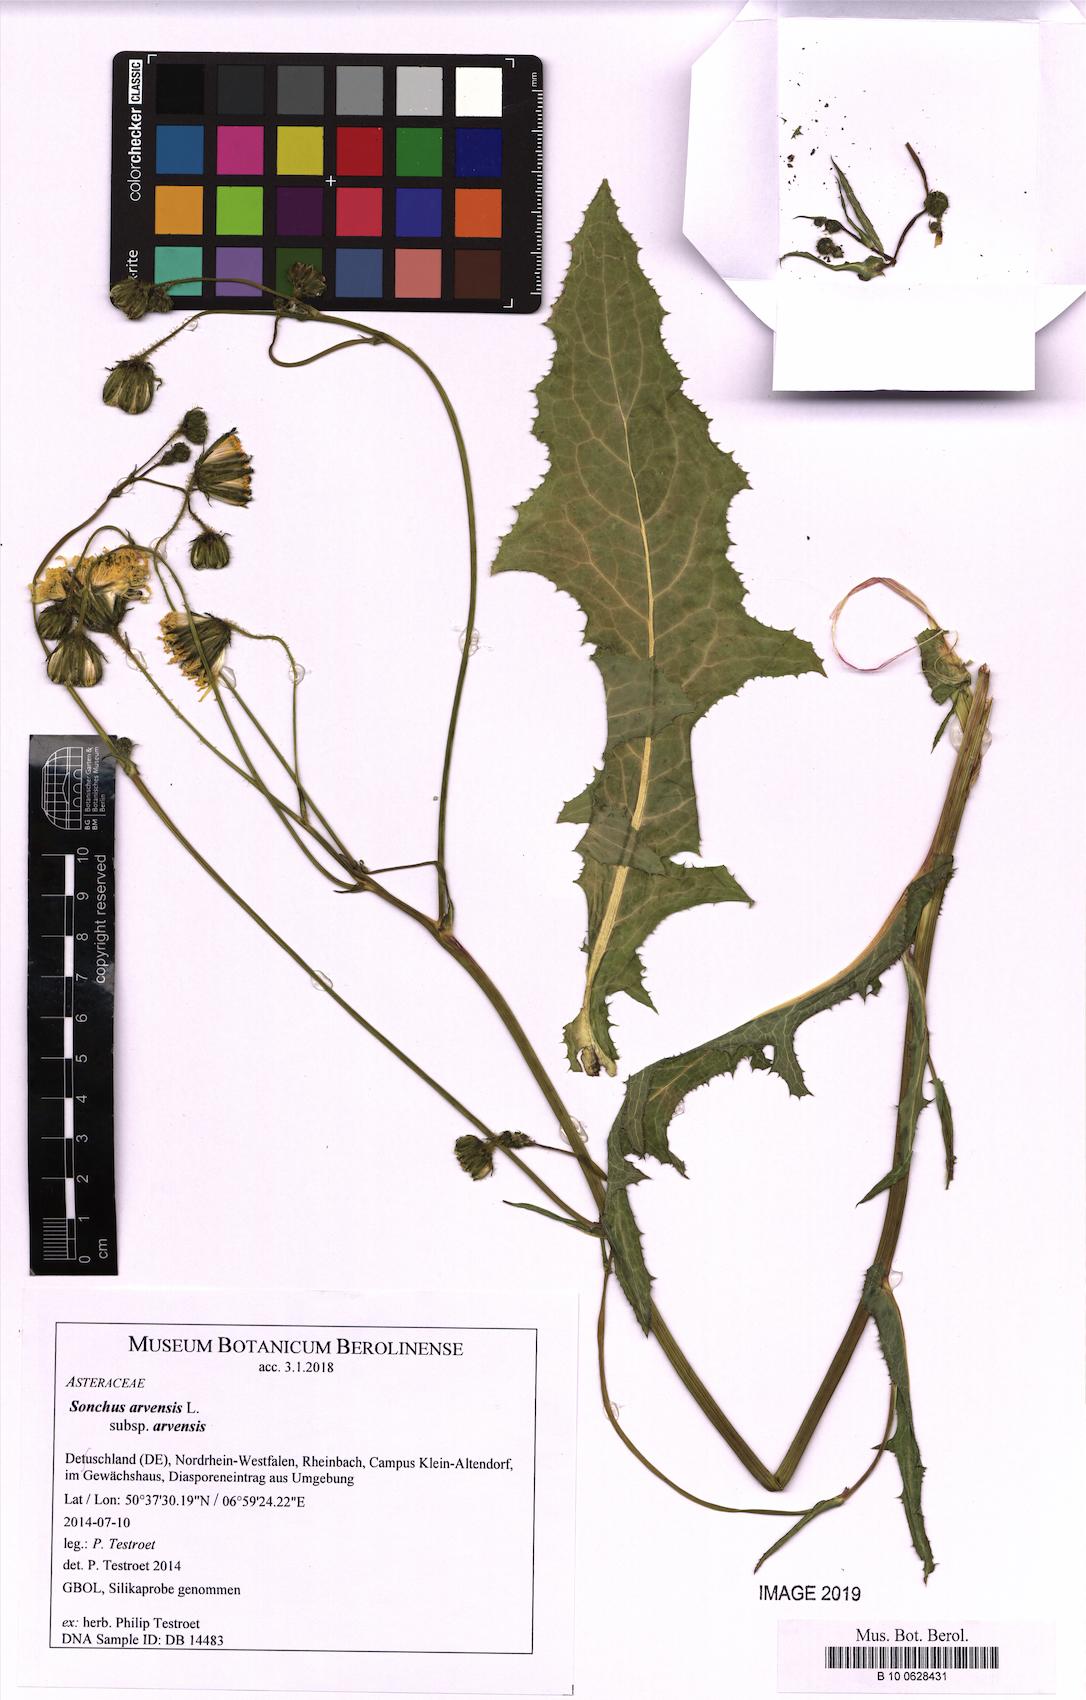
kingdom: Plantae
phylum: Tracheophyta
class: Magnoliopsida
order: Asterales
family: Asteraceae
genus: Sonchus
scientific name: Sonchus arvensis
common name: Perennial sow-thistle
